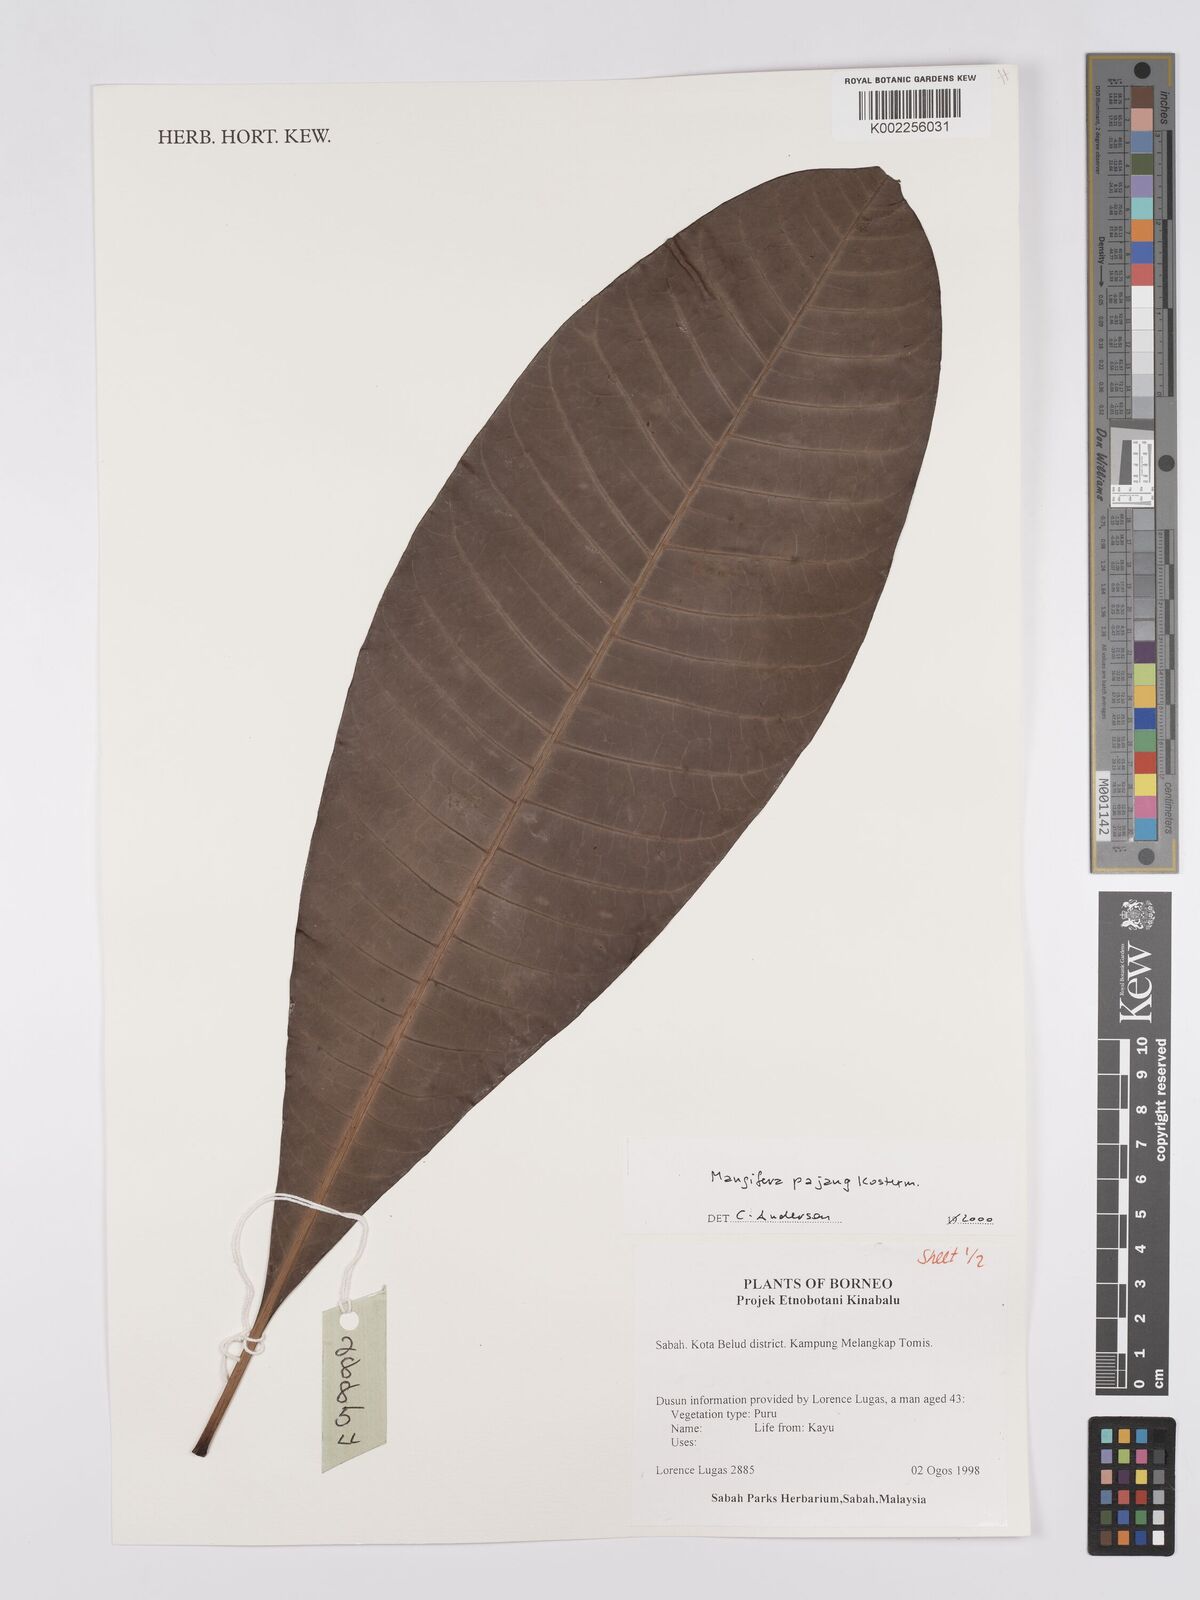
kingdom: Plantae
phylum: Tracheophyta
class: Magnoliopsida
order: Sapindales
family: Anacardiaceae
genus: Mangifera
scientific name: Mangifera pajang
